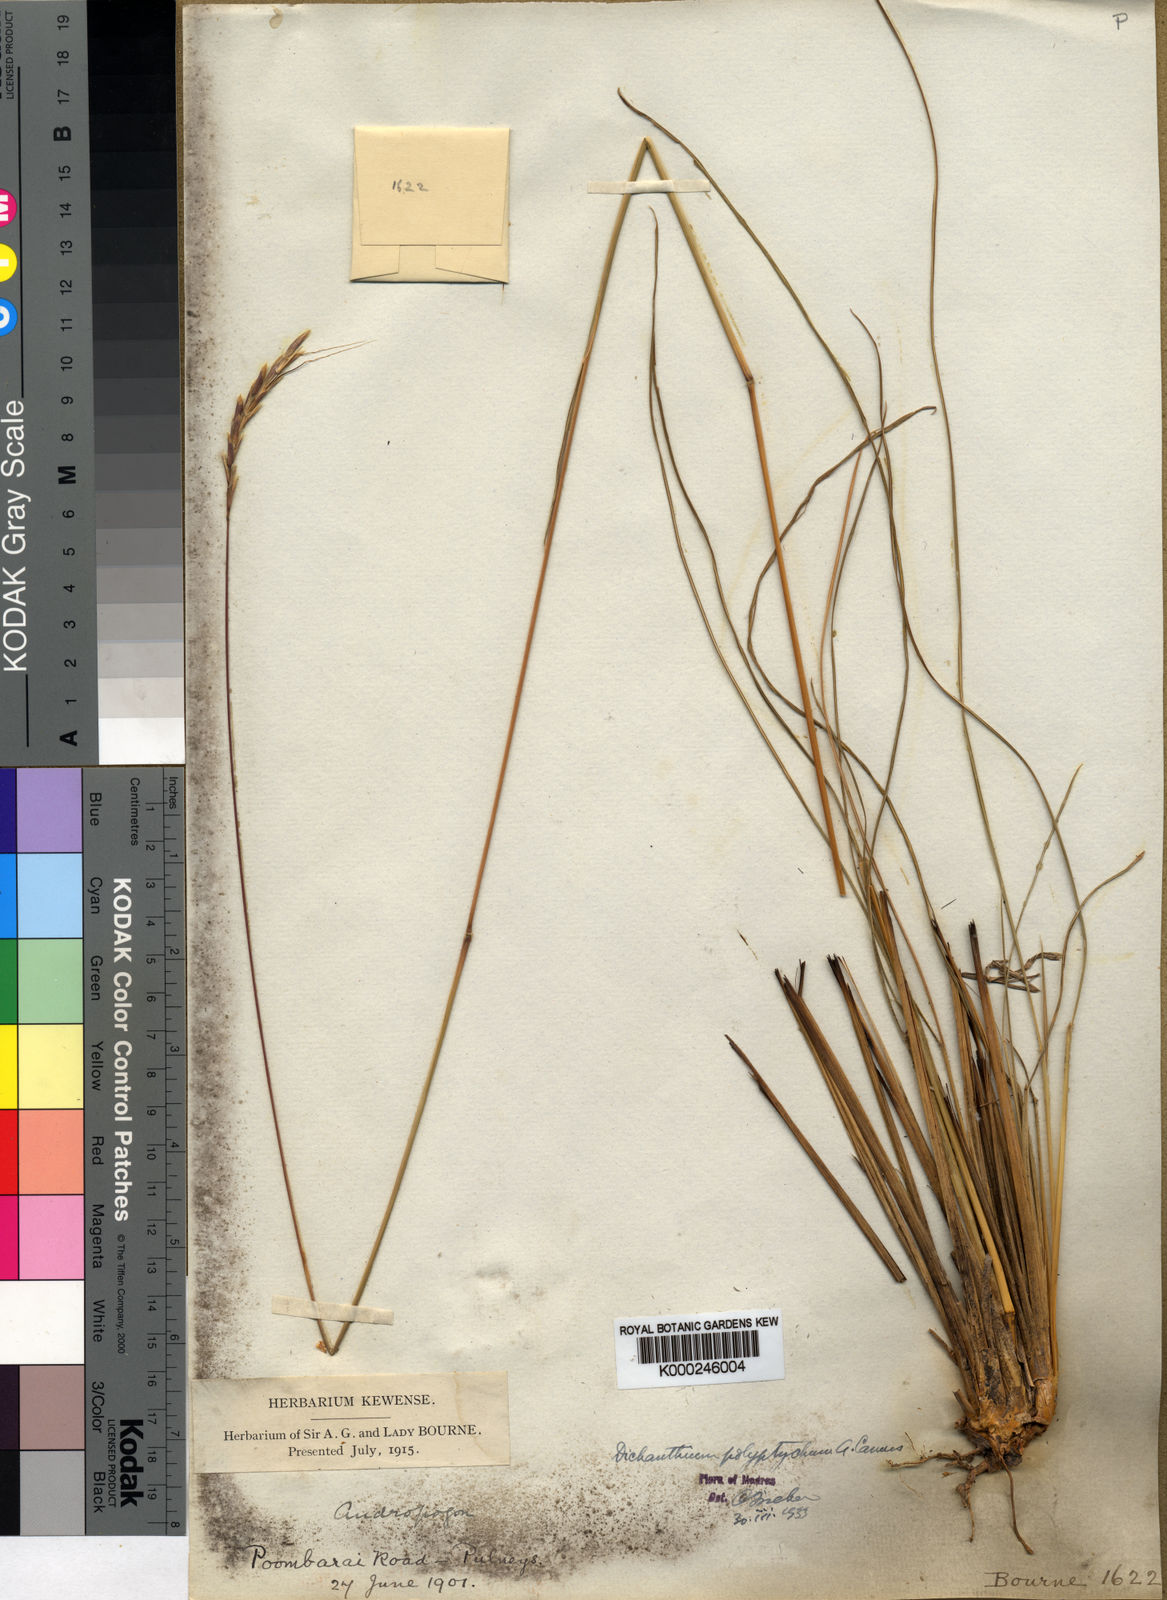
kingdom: Plantae
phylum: Tracheophyta
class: Liliopsida
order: Poales
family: Poaceae
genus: Andropogon
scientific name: Andropogon polyptychos
